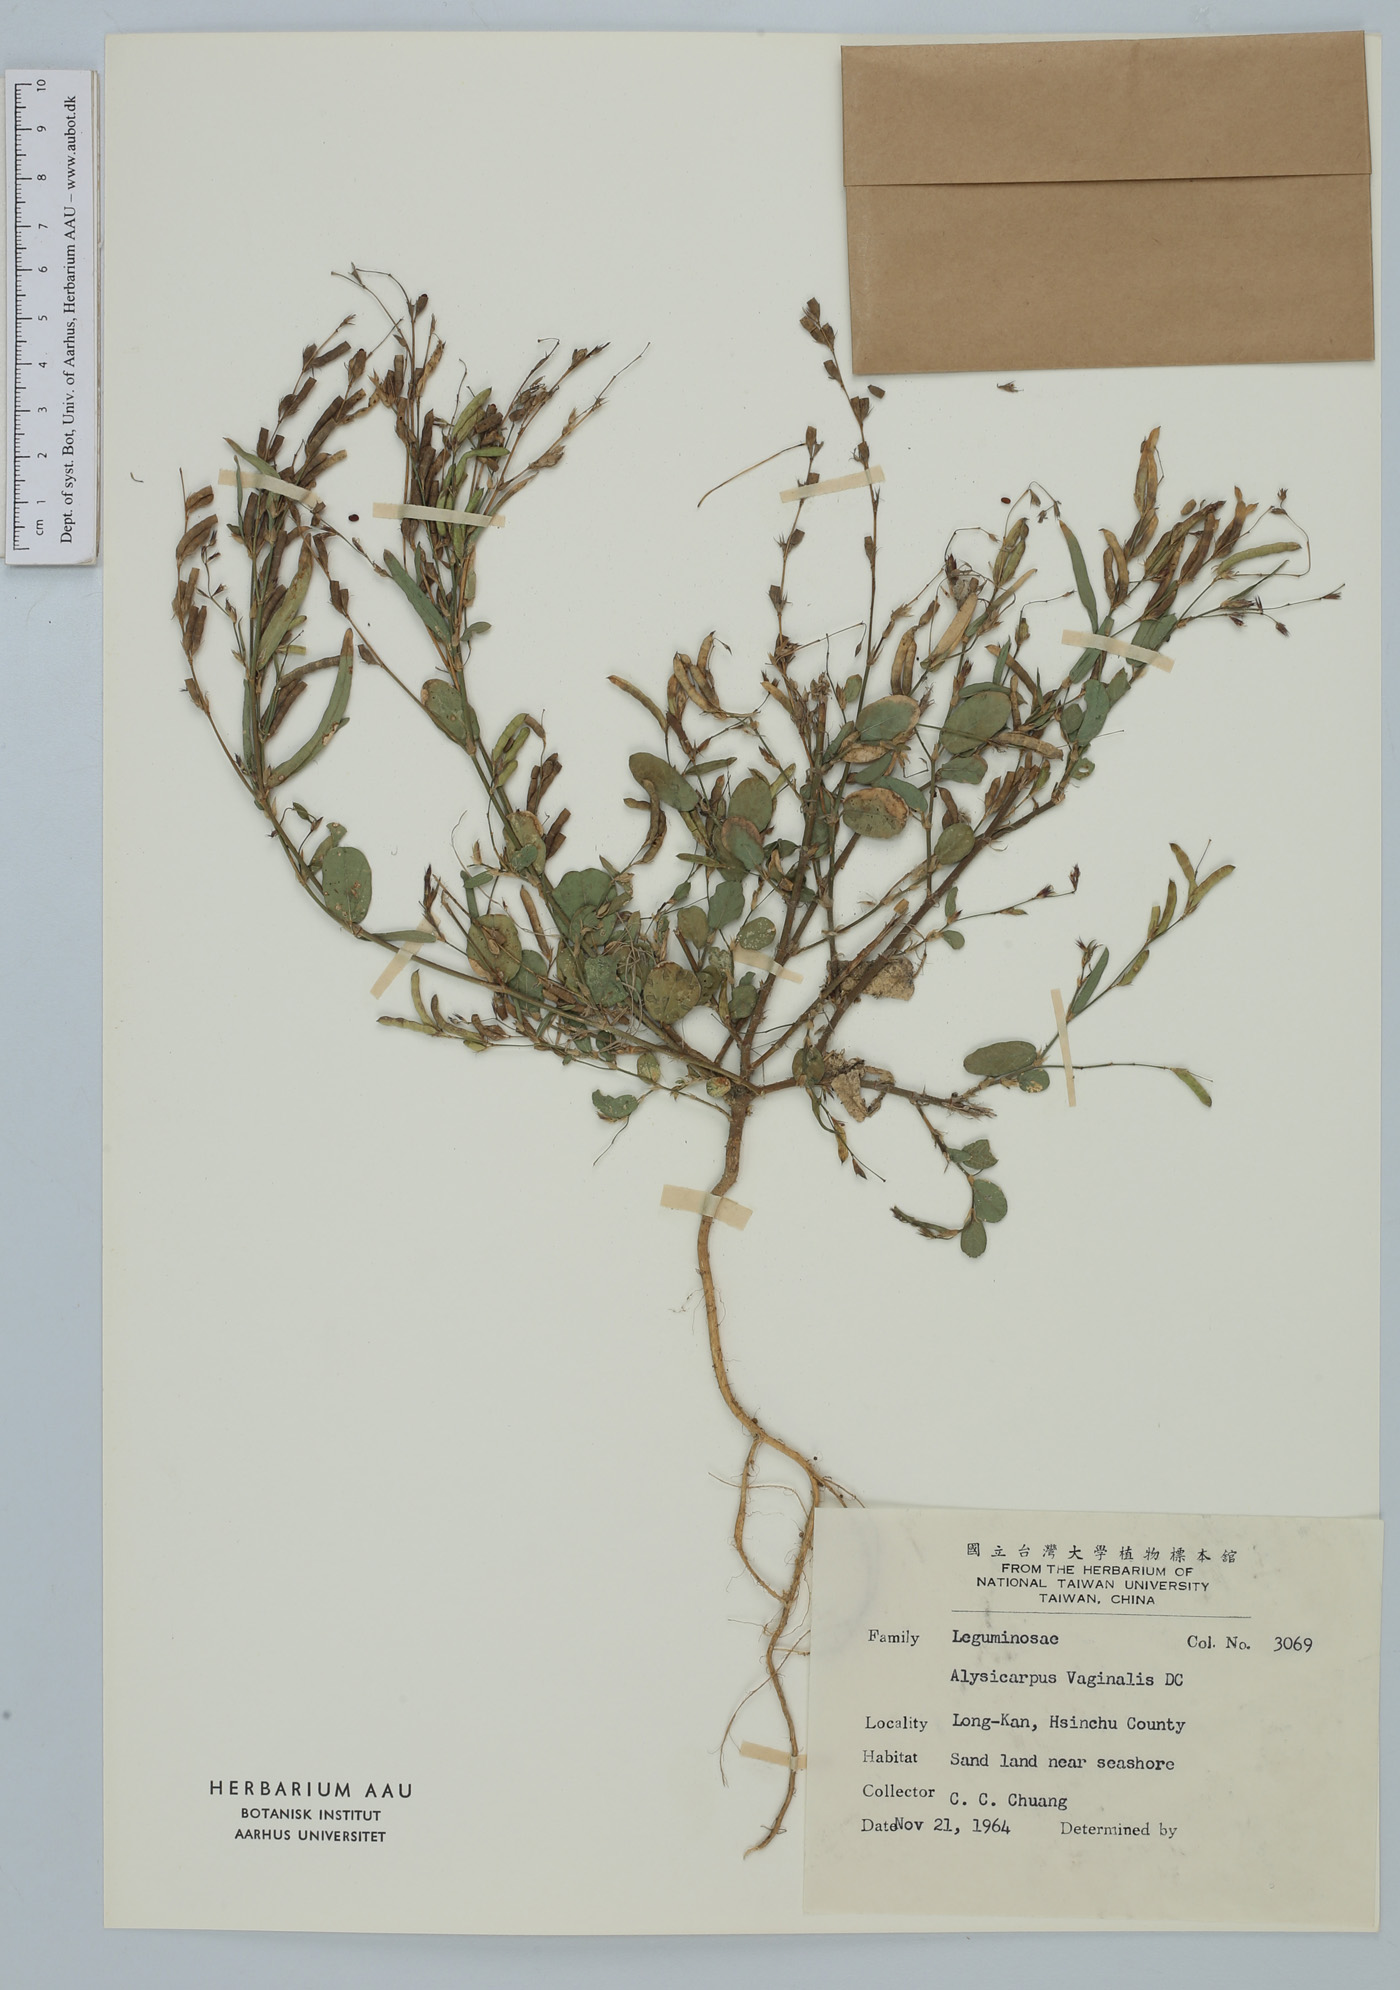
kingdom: Plantae
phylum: Tracheophyta
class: Magnoliopsida
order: Fabales
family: Fabaceae
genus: Alysicarpus
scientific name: Alysicarpus vaginalis
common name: White moneywort
